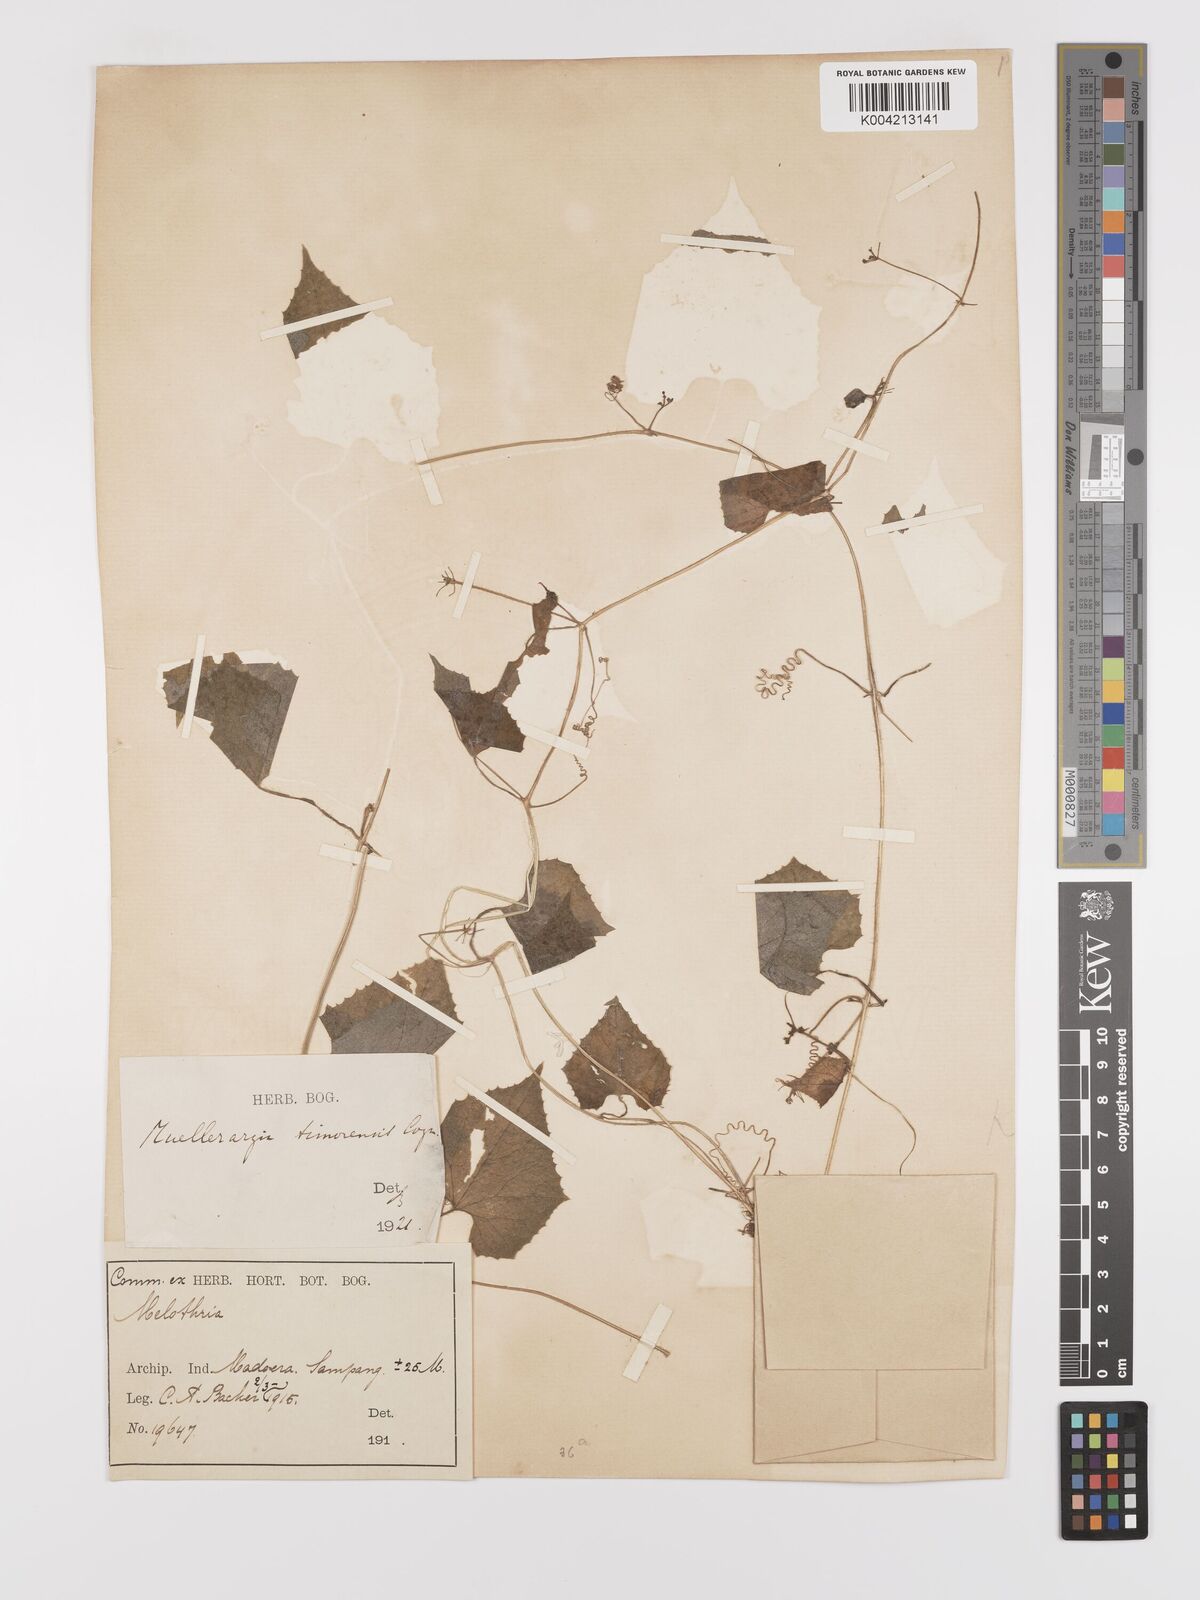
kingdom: Plantae
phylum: Tracheophyta
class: Magnoliopsida
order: Cucurbitales
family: Cucurbitaceae
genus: Muellerargia
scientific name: Muellerargia
